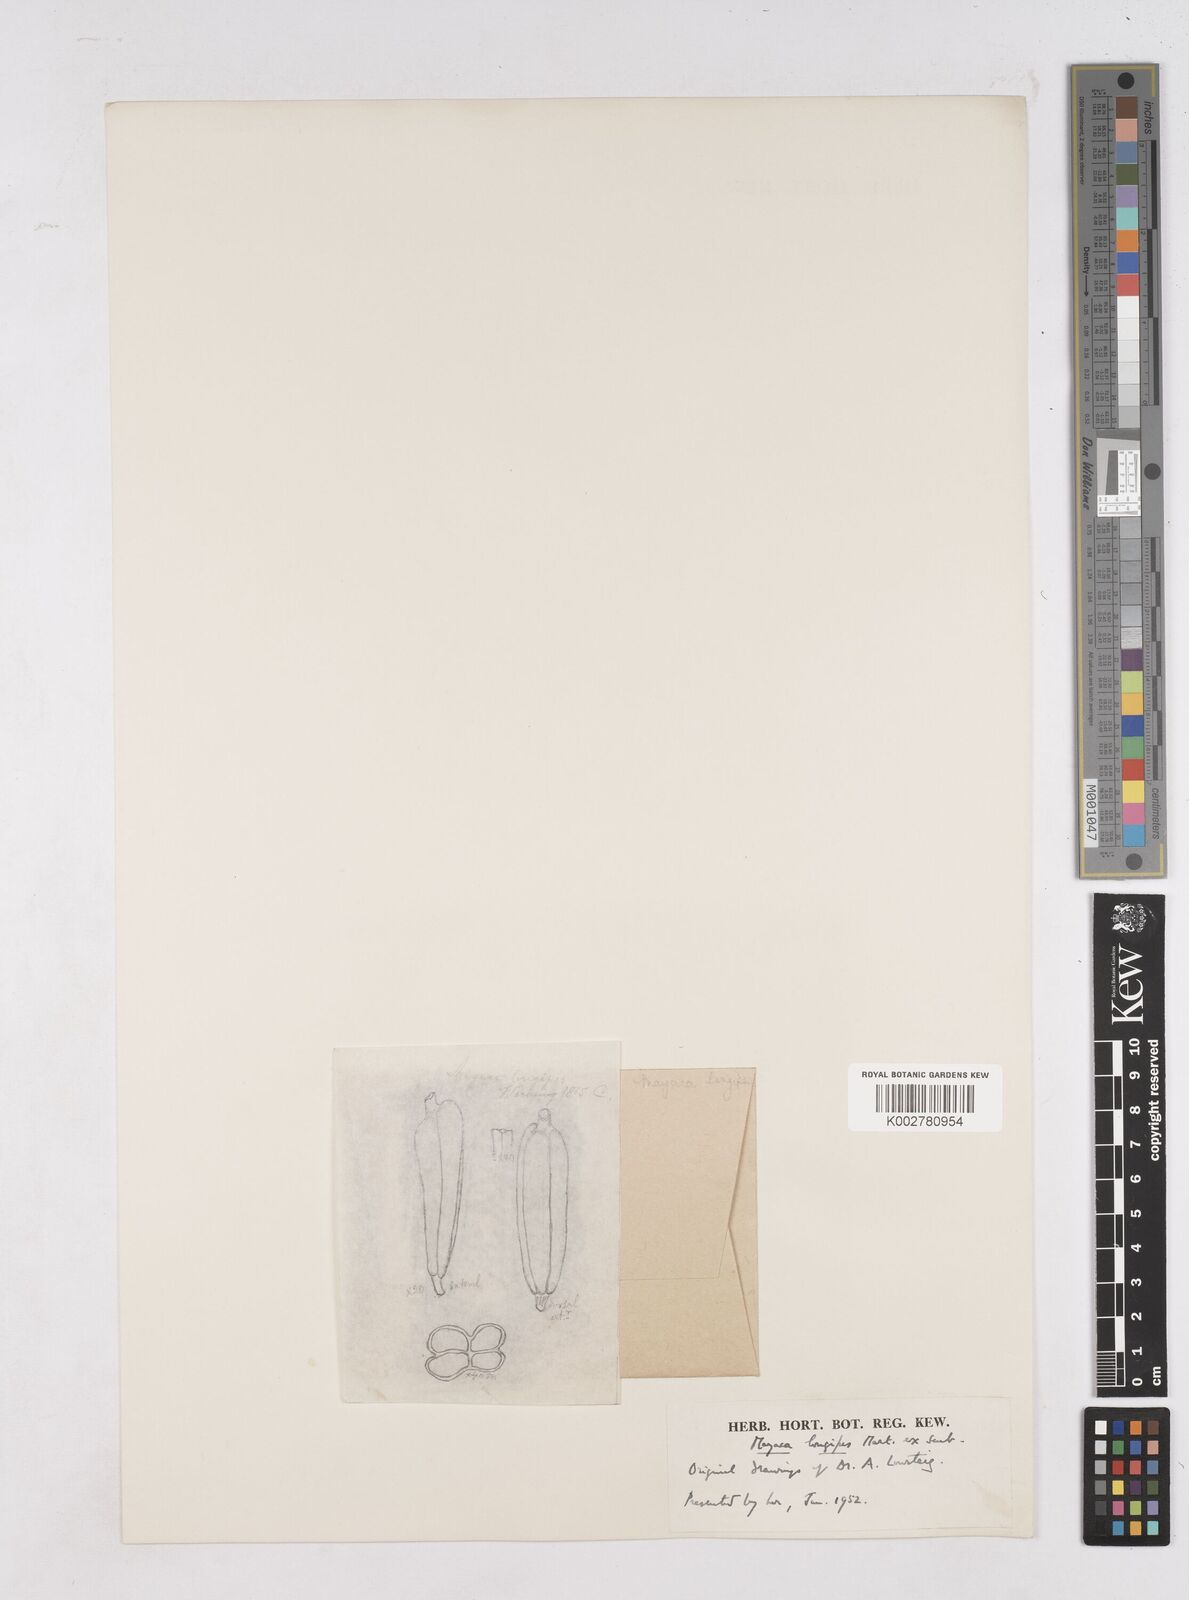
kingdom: Plantae
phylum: Tracheophyta
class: Liliopsida
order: Poales
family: Mayacaceae
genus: Mayaca
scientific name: Mayaca fluviatilis
